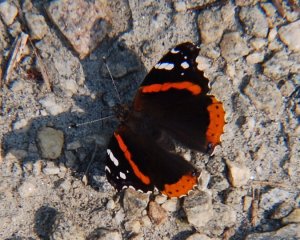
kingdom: Animalia
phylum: Arthropoda
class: Insecta
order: Lepidoptera
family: Nymphalidae
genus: Vanessa
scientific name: Vanessa atalanta
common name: Red Admiral
